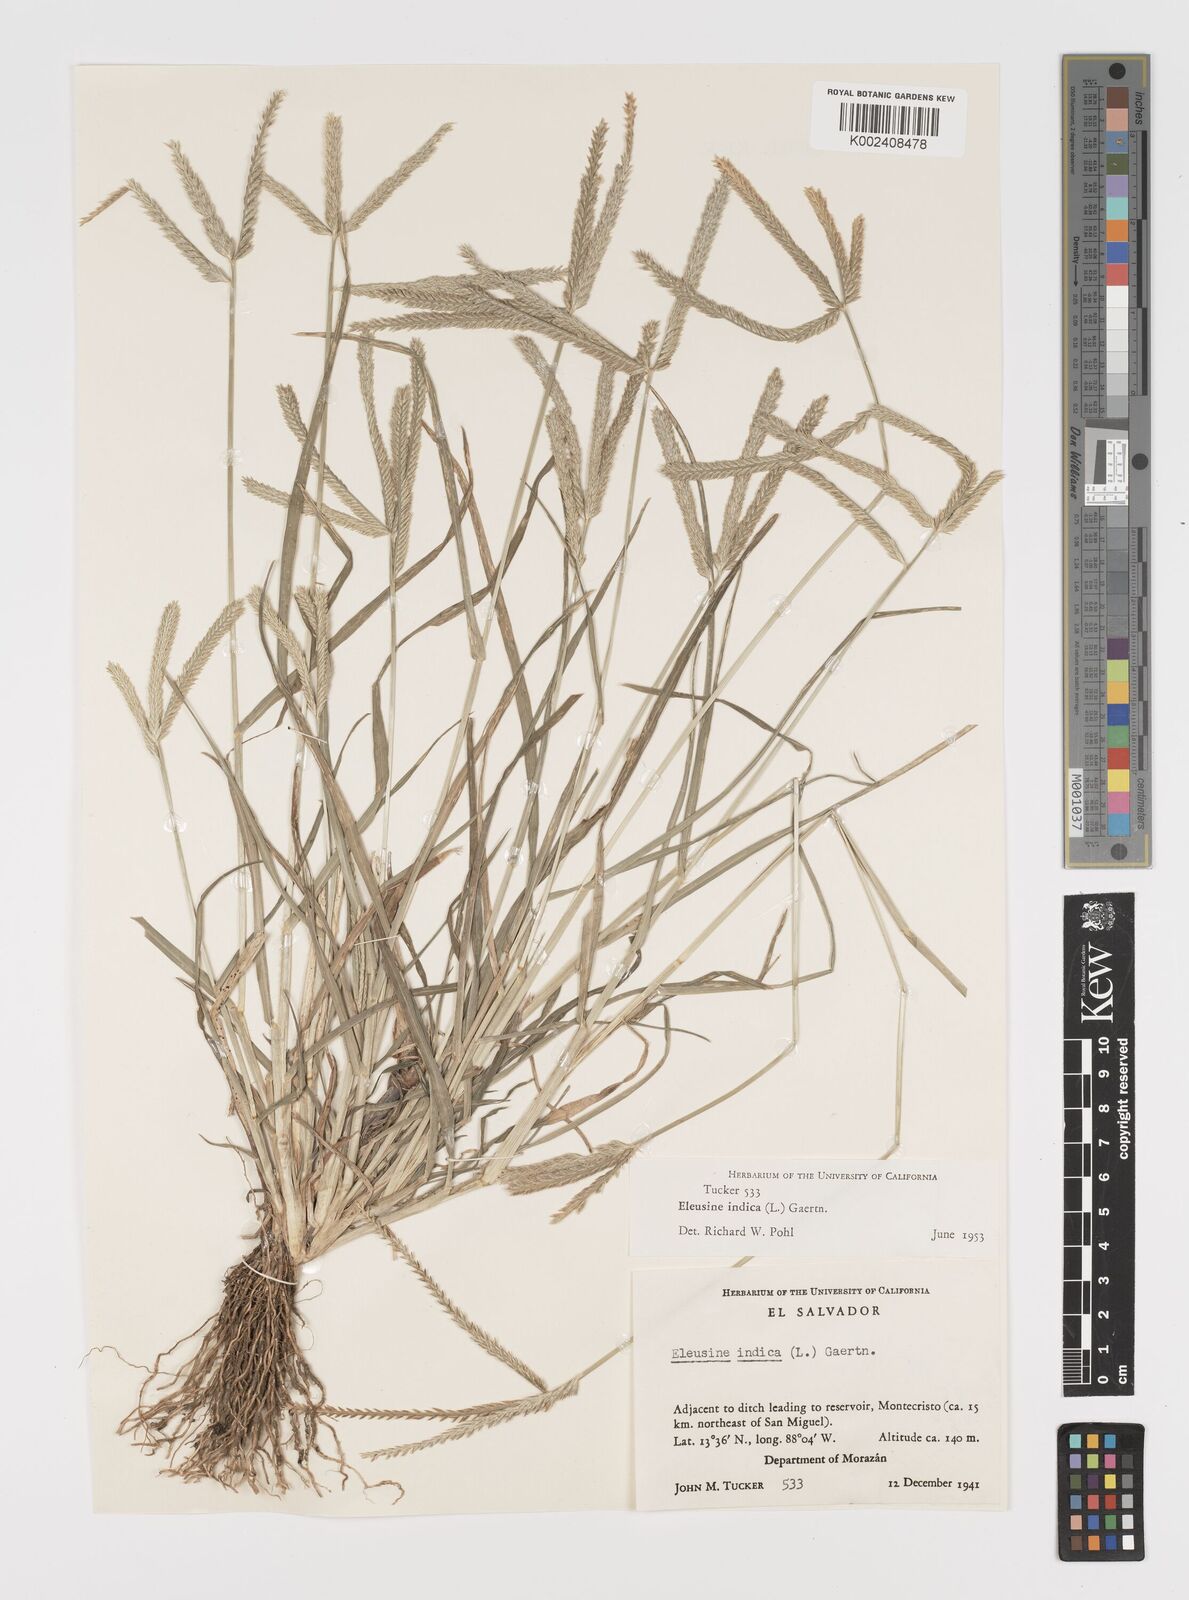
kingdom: Plantae
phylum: Tracheophyta
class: Liliopsida
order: Poales
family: Poaceae
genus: Eleusine
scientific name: Eleusine indica
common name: Yard-grass
